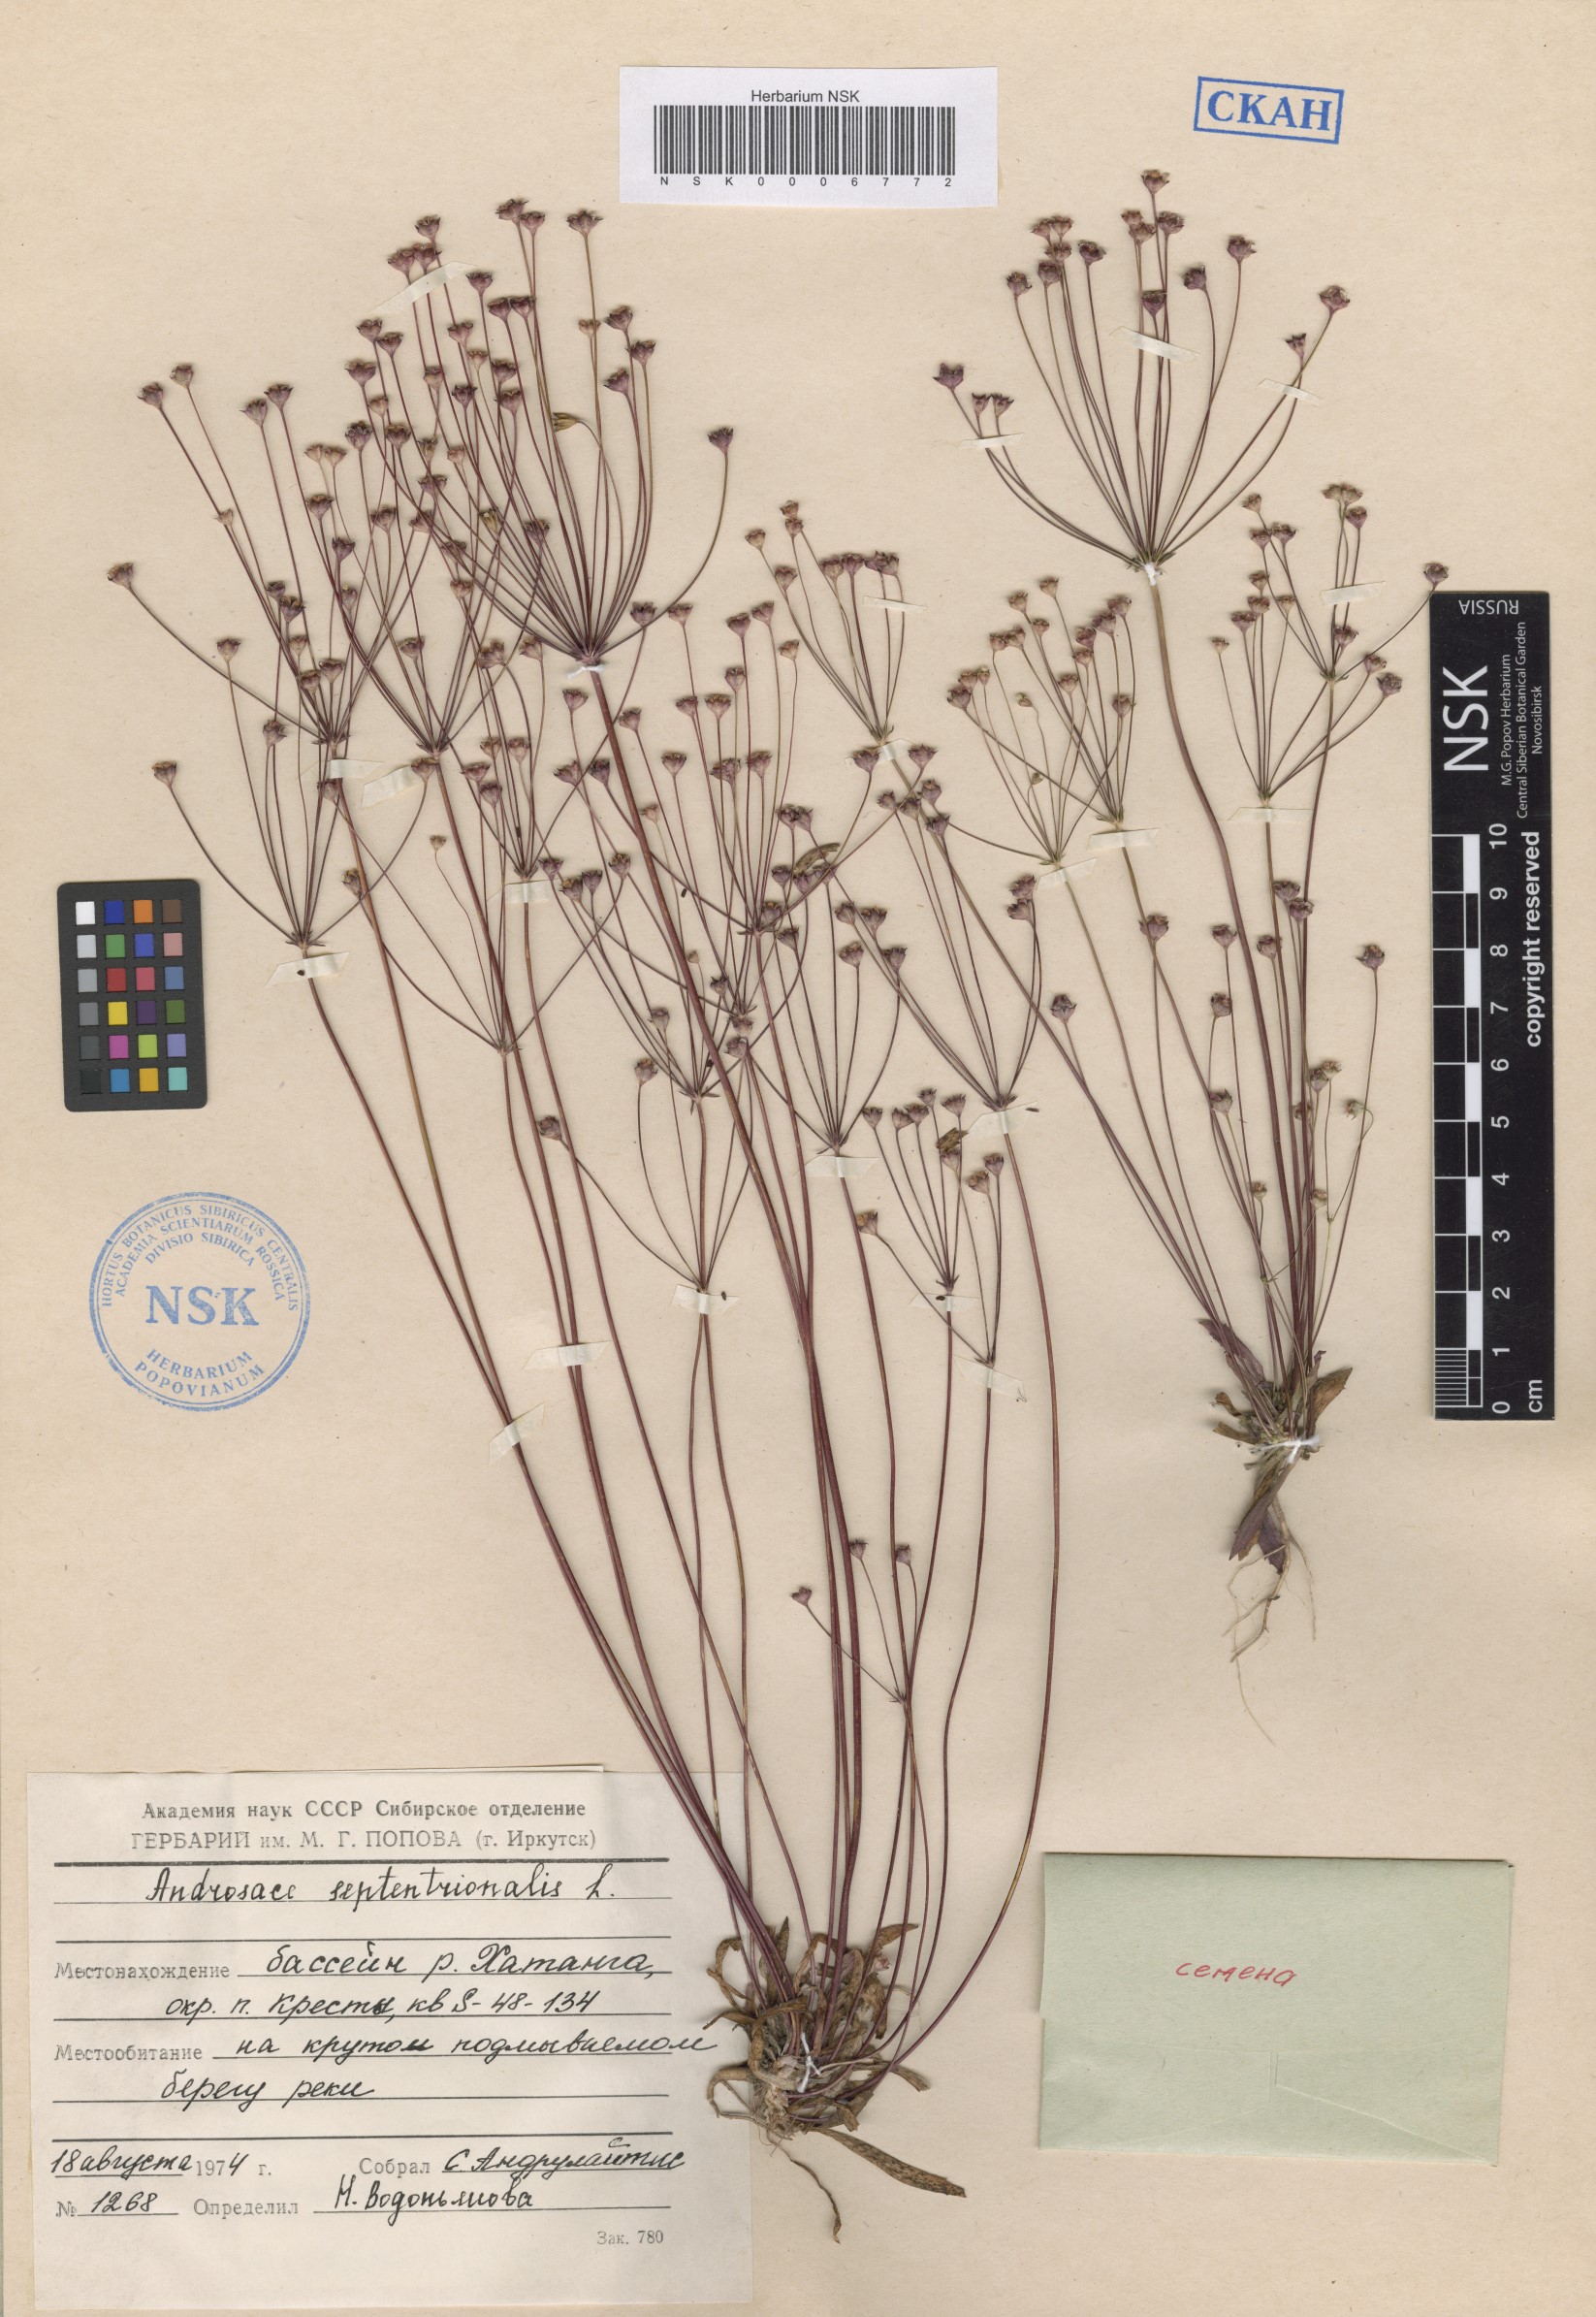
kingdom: Plantae
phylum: Tracheophyta
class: Magnoliopsida
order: Ericales
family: Primulaceae
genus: Androsace
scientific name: Androsace septentrionalis
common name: Hairy northern fairy-candelabra
